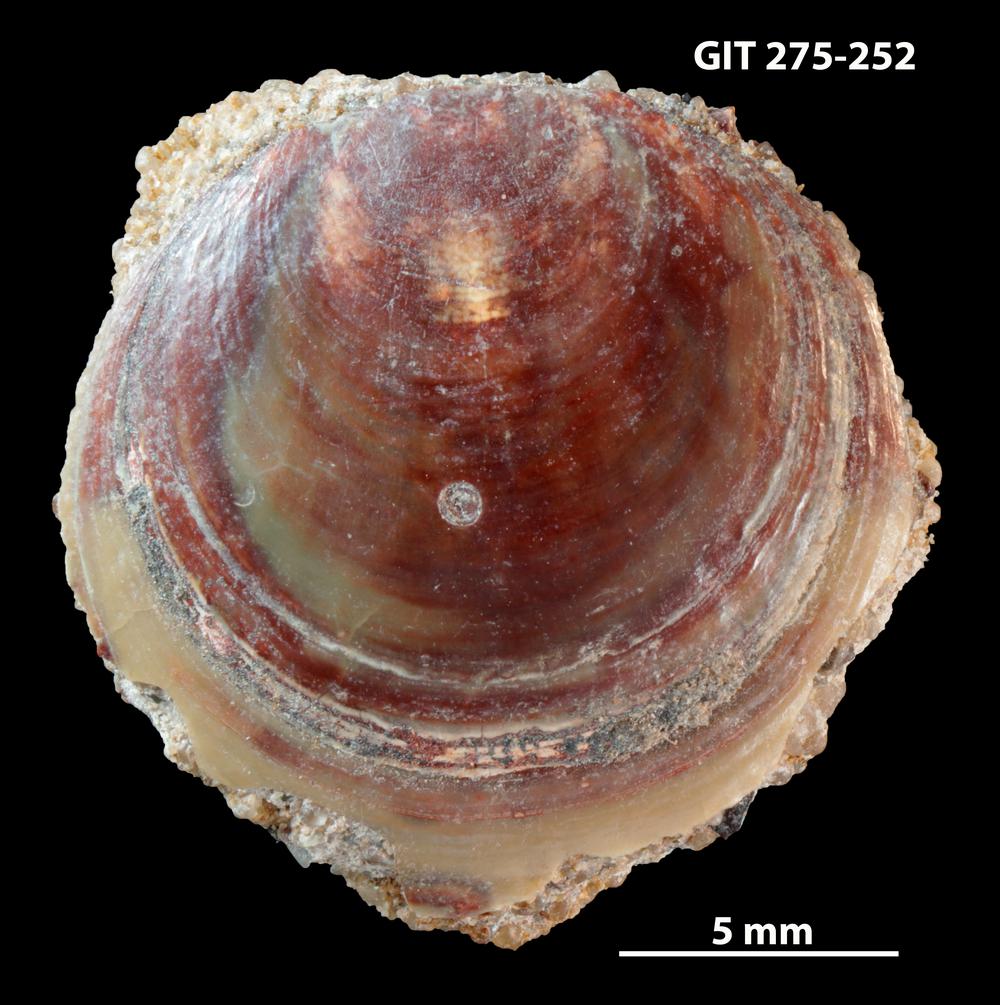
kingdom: Animalia
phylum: Porifera
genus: Ungula
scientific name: Ungula
